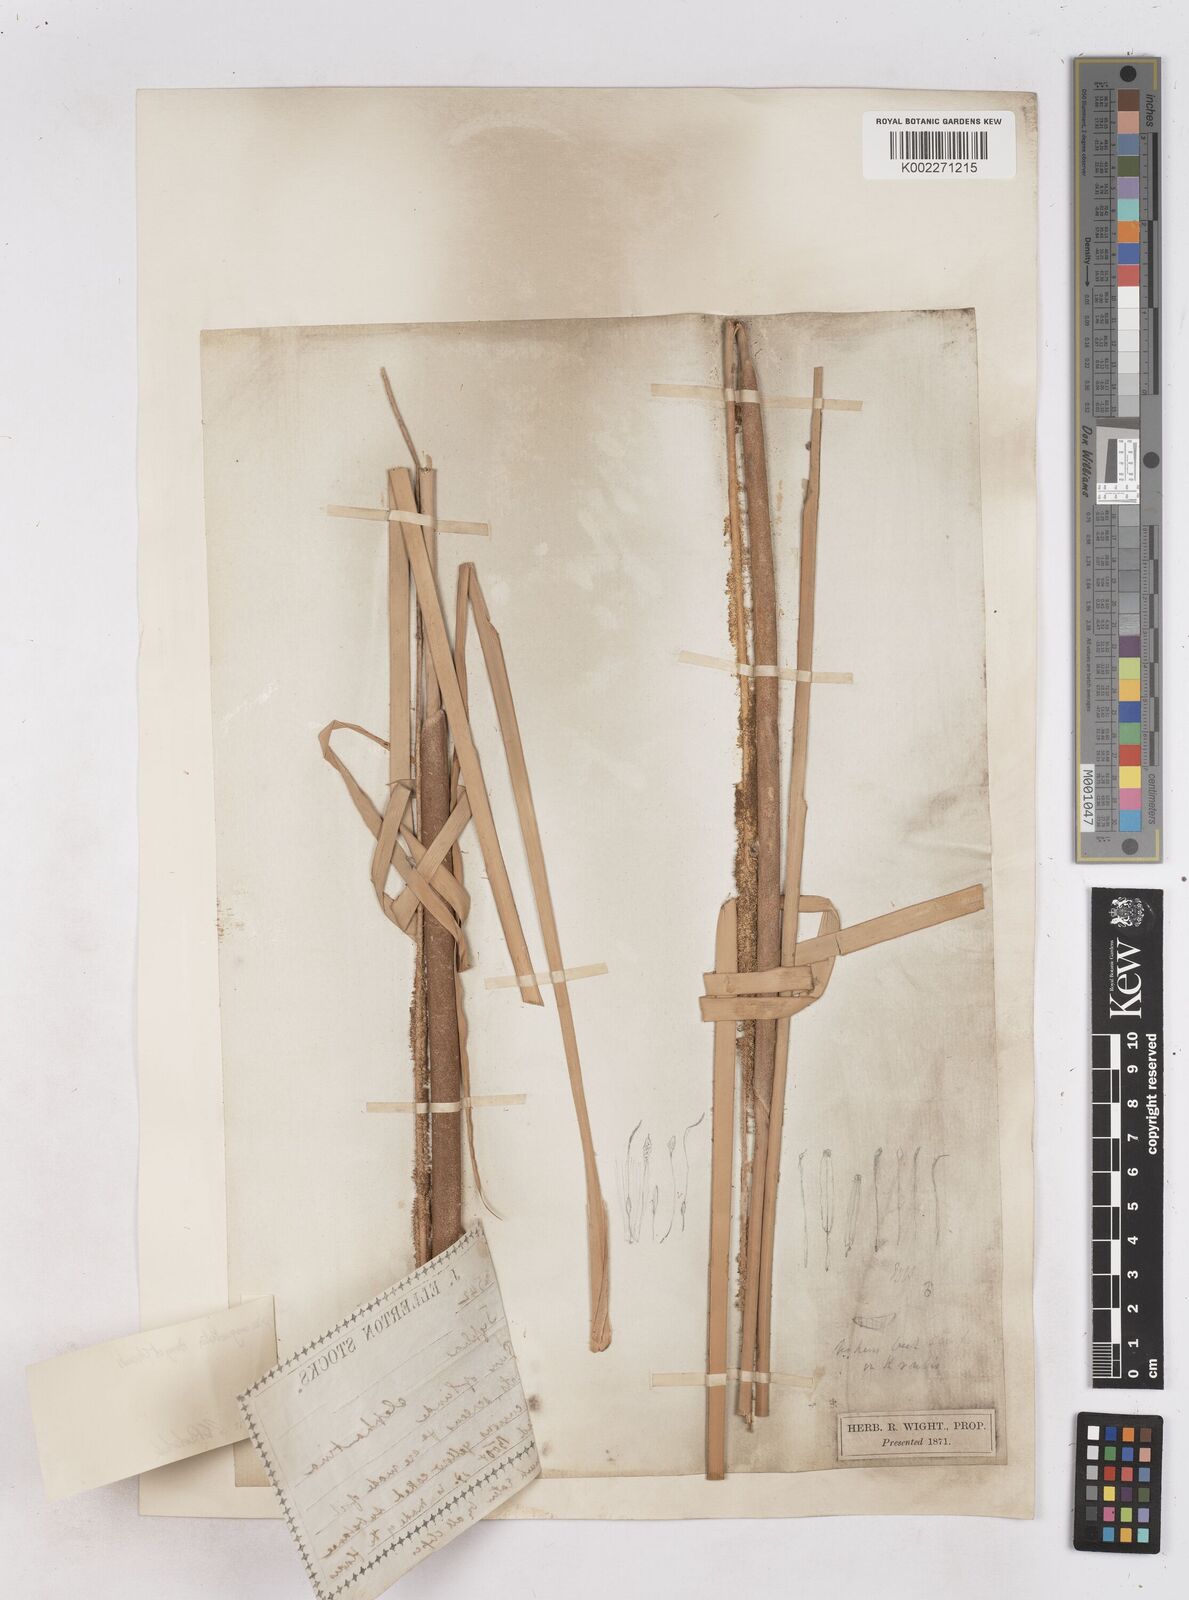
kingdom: Plantae
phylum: Tracheophyta
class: Liliopsida
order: Poales
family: Typhaceae
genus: Typha
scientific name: Typha domingensis
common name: Southern cattail
